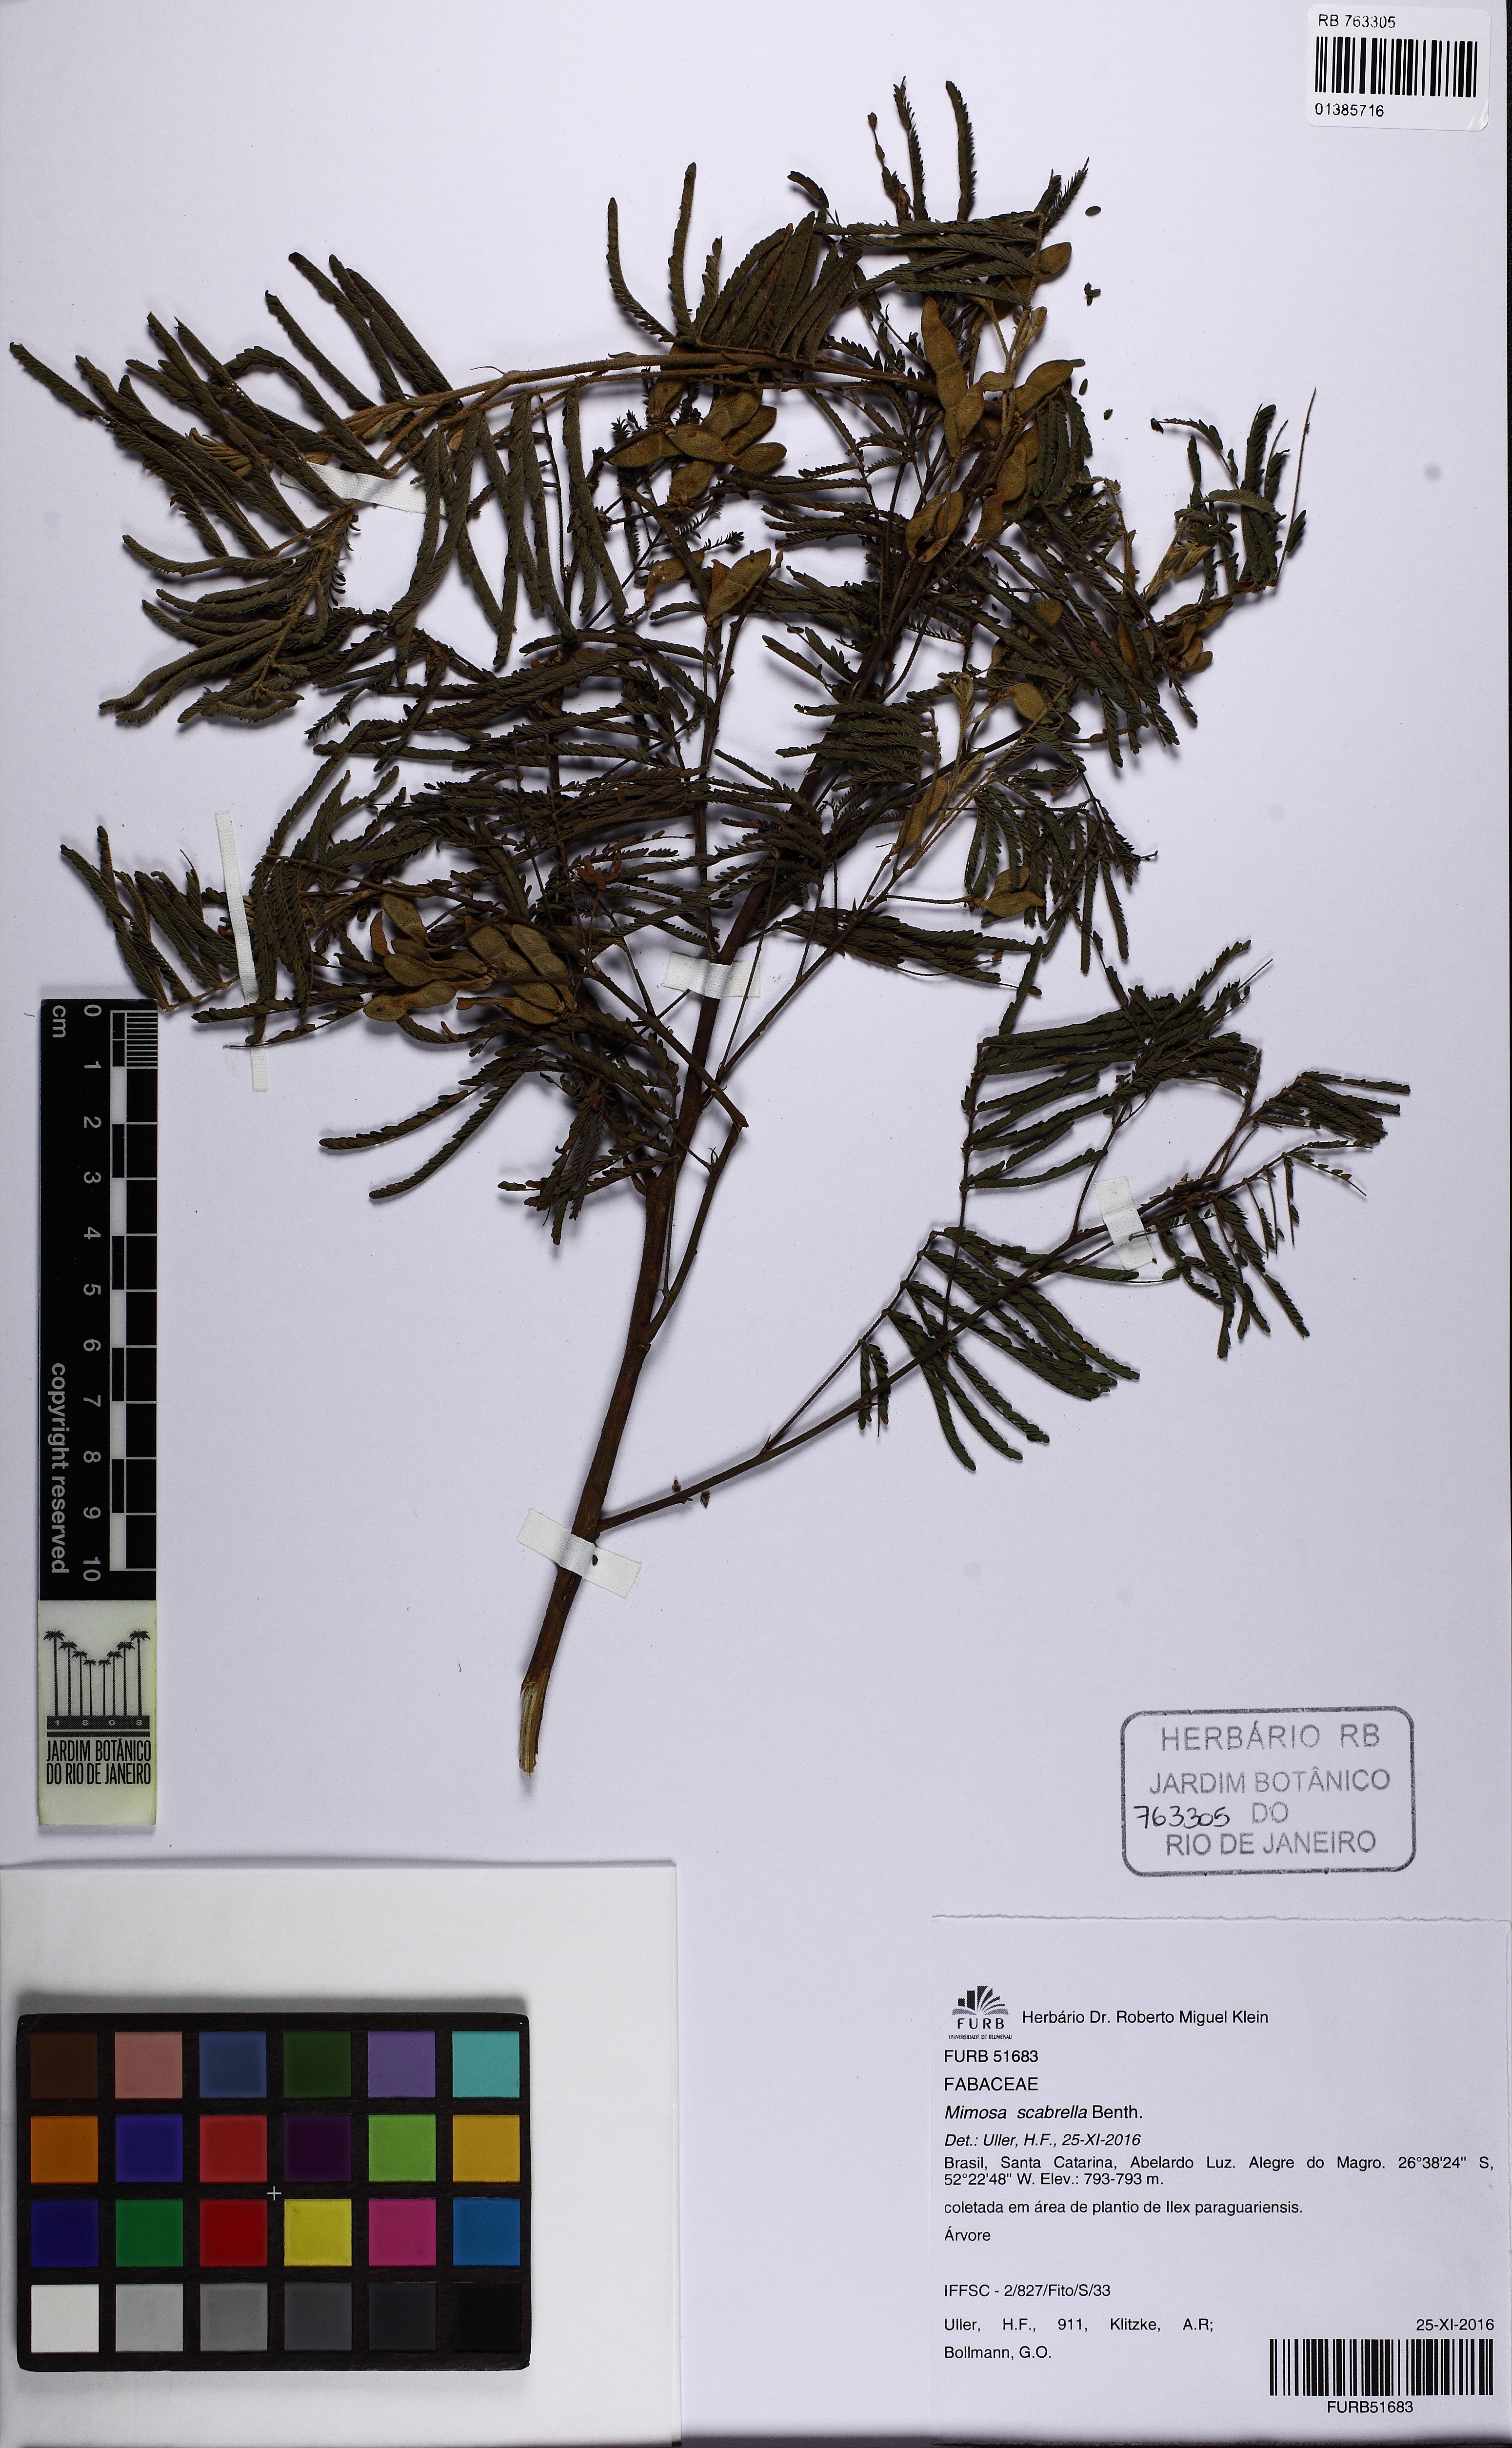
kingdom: Plantae
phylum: Tracheophyta
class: Magnoliopsida
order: Fabales
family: Fabaceae
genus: Mimosa
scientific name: Mimosa scabrella
